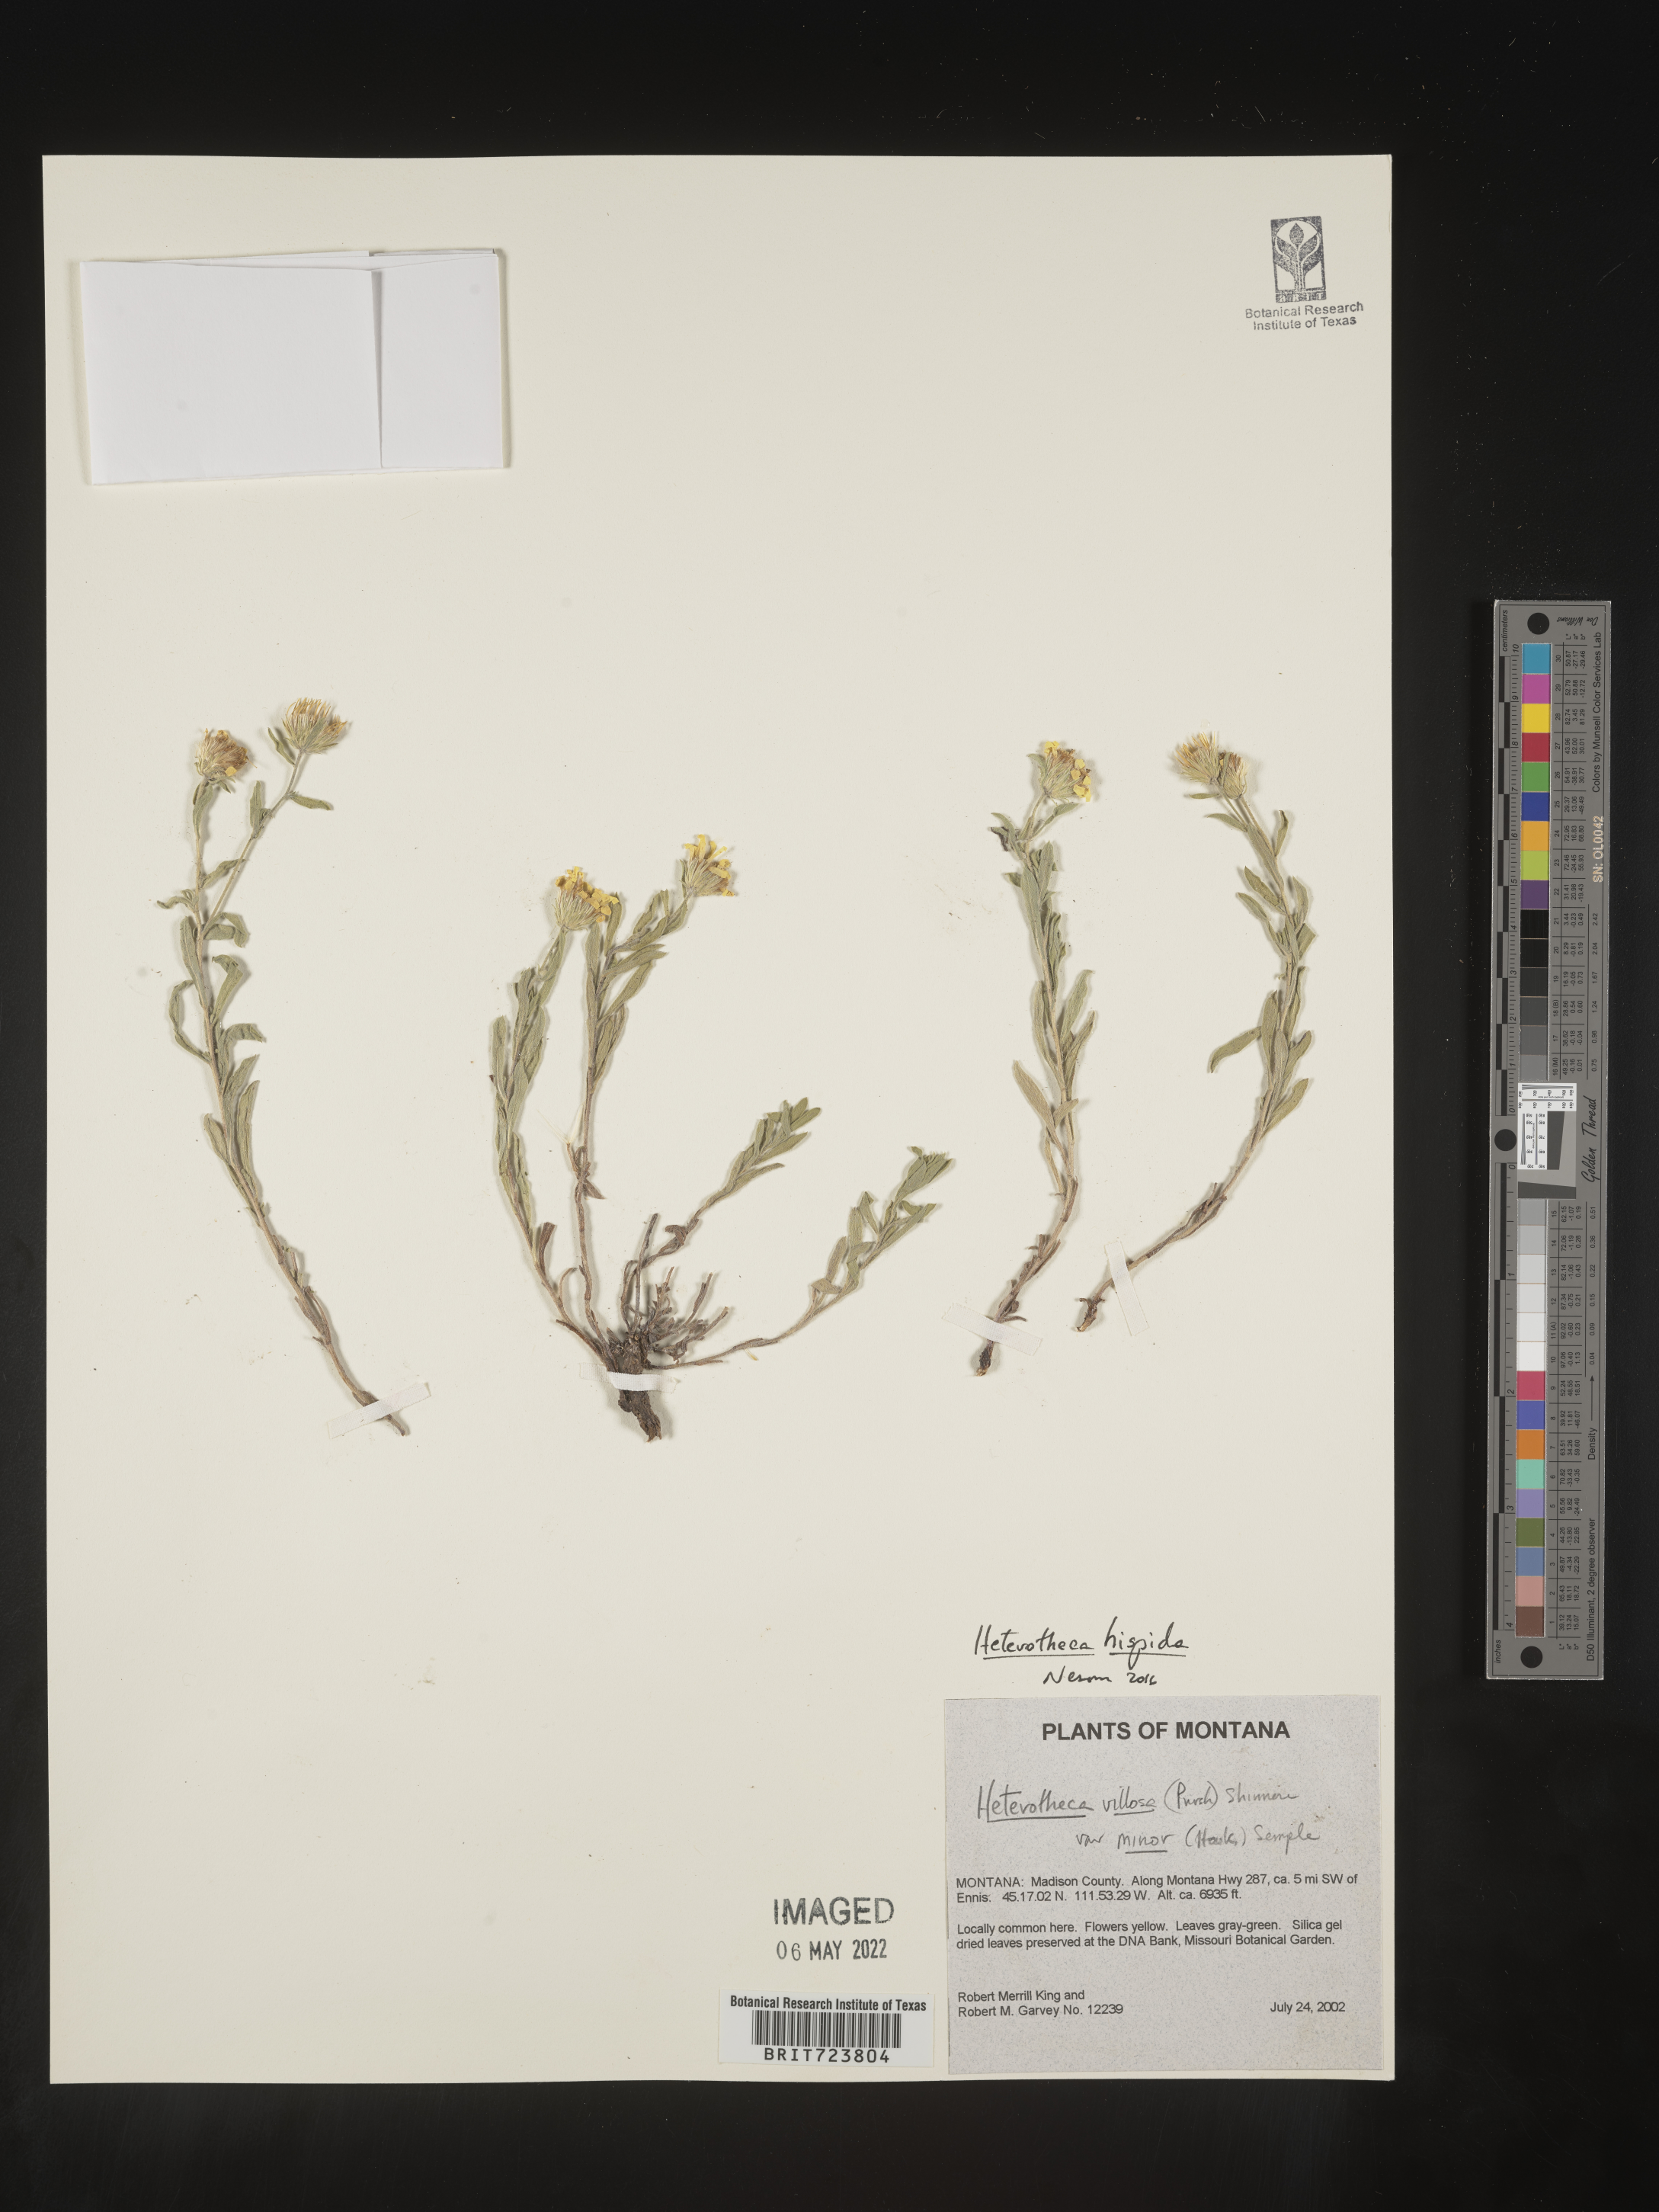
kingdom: Plantae
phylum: Tracheophyta
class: Magnoliopsida
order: Asterales
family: Asteraceae
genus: Heterotheca
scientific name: Heterotheca hispida
